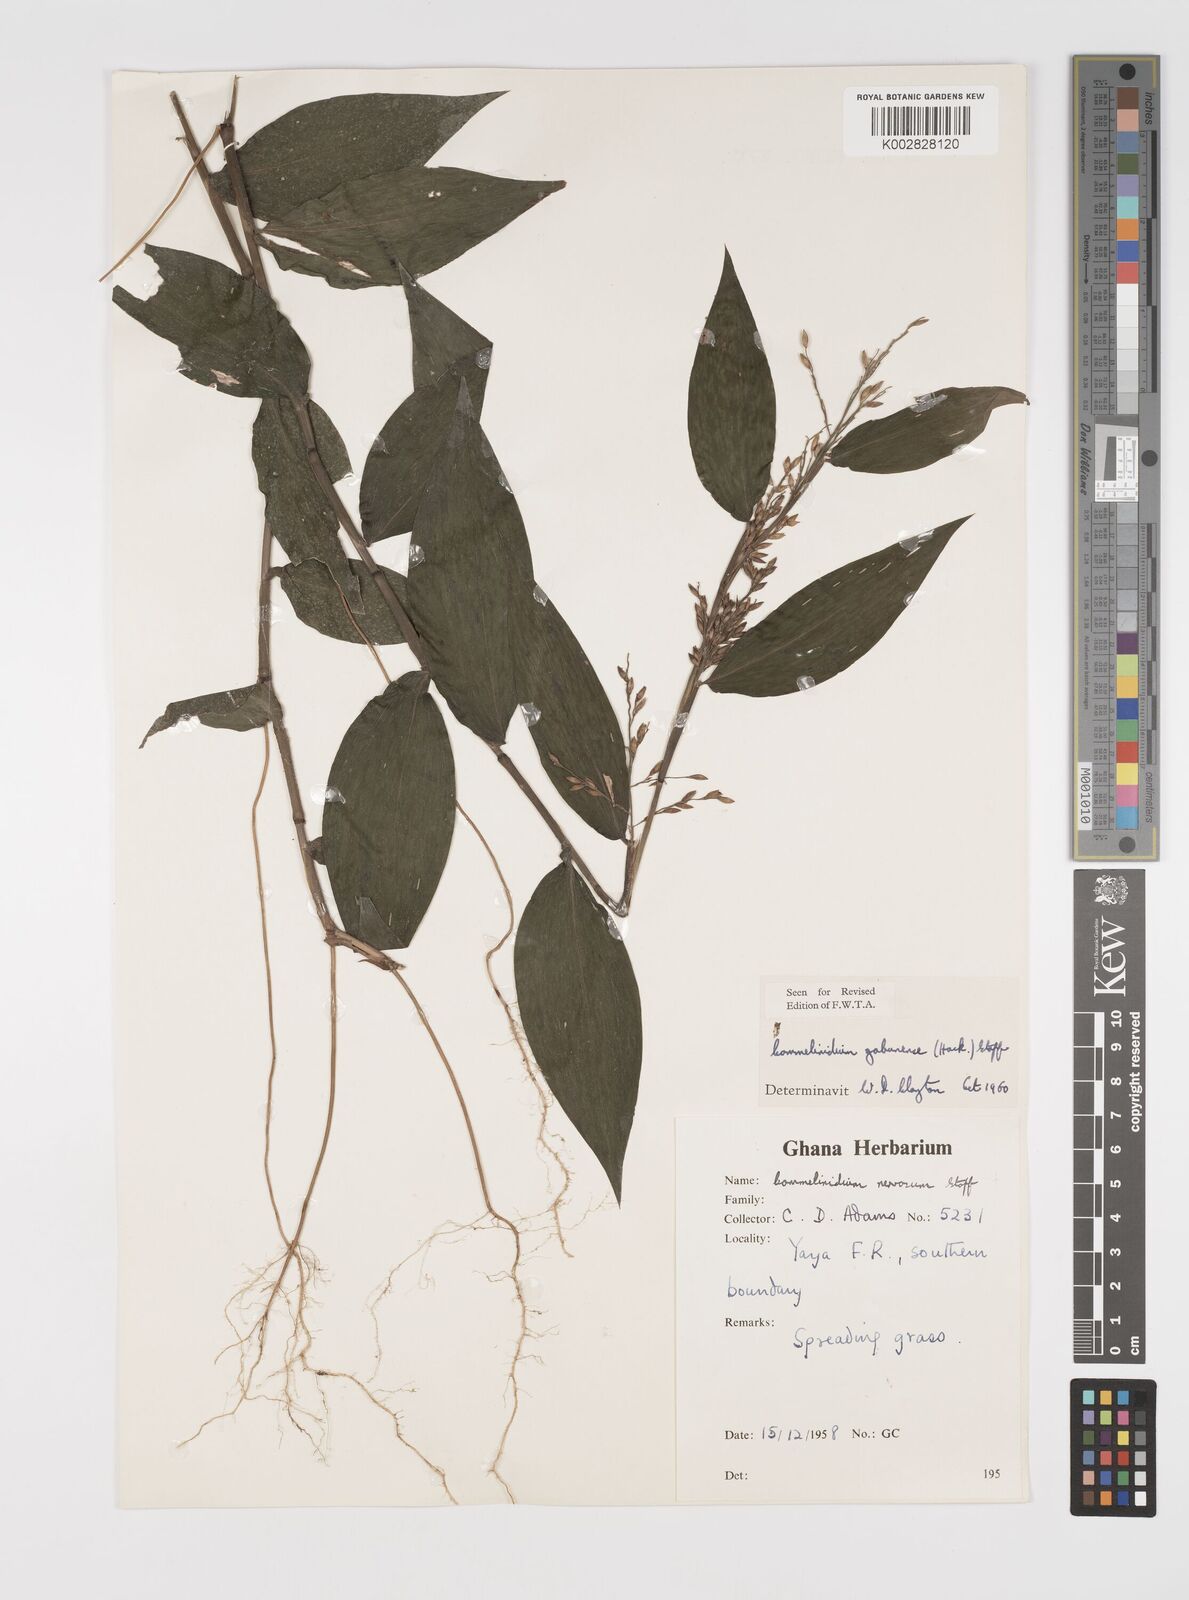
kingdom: Plantae
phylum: Tracheophyta
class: Liliopsida
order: Poales
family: Poaceae
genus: Acroceras
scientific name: Acroceras gabunense
